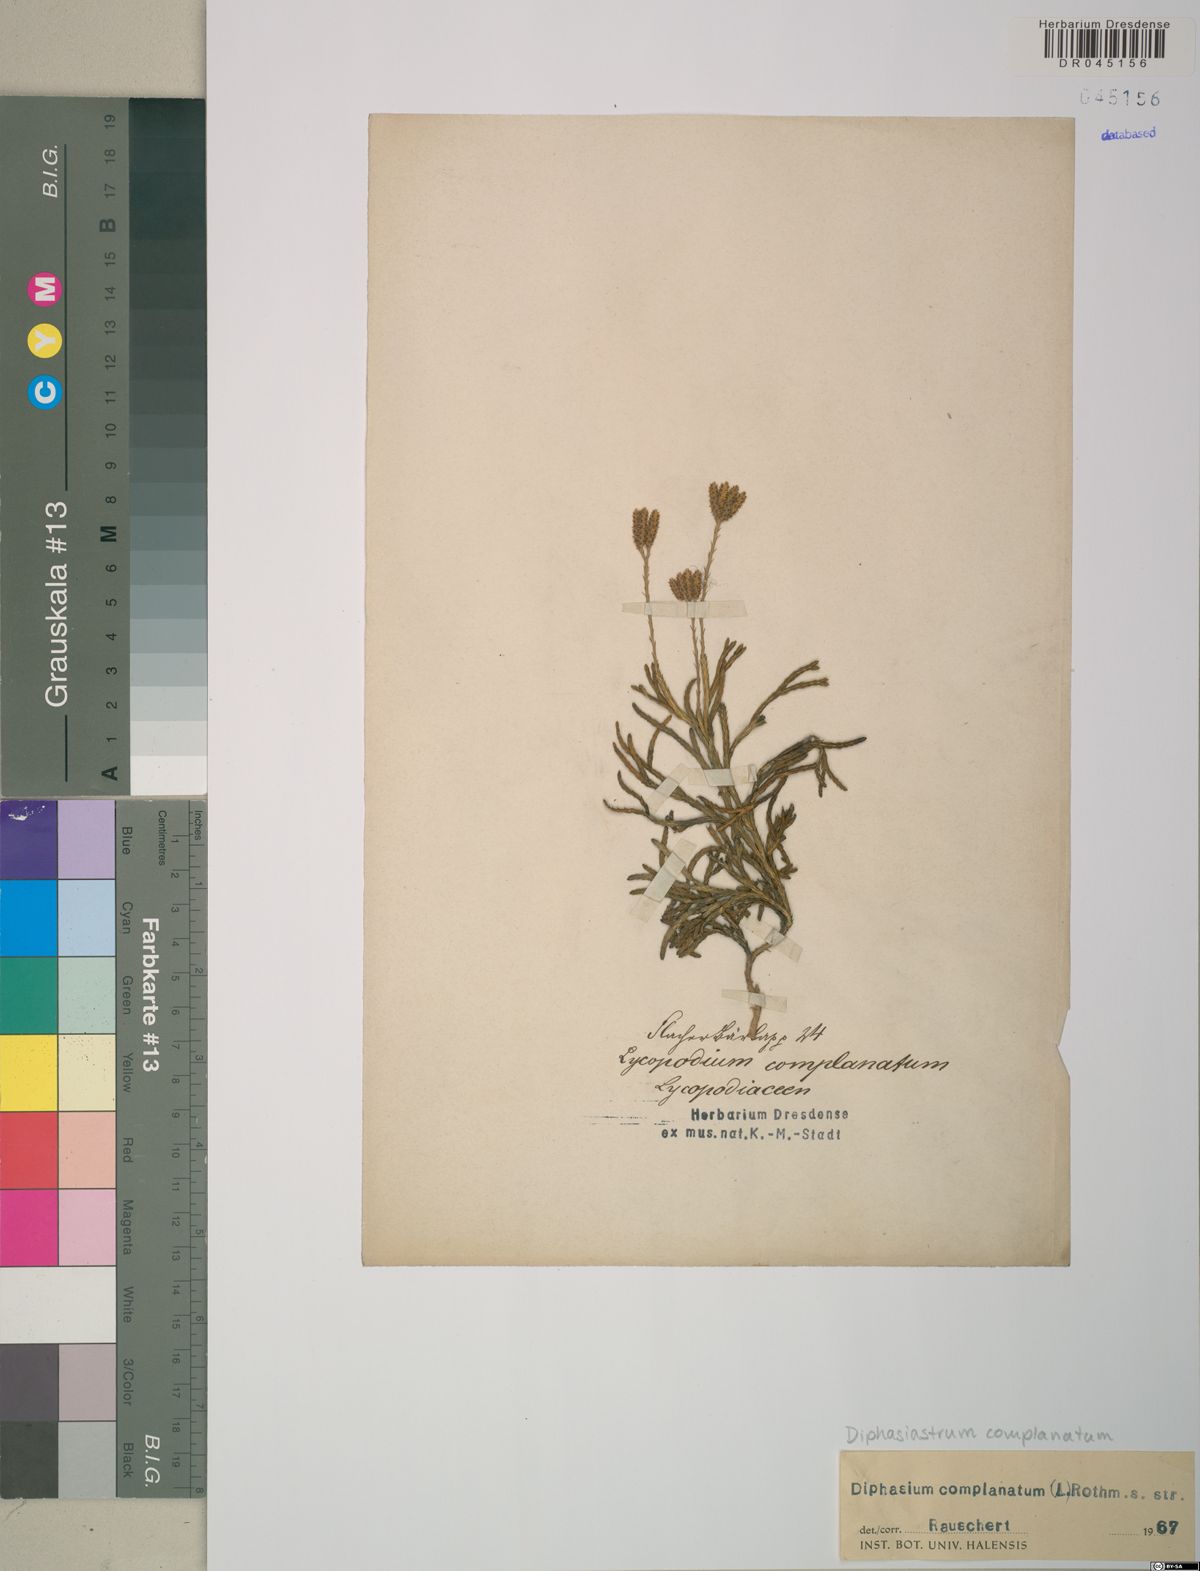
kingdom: Plantae
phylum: Tracheophyta
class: Lycopodiopsida
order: Lycopodiales
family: Lycopodiaceae
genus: Diphasiastrum
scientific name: Diphasiastrum complanatum
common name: Northern running-pine
